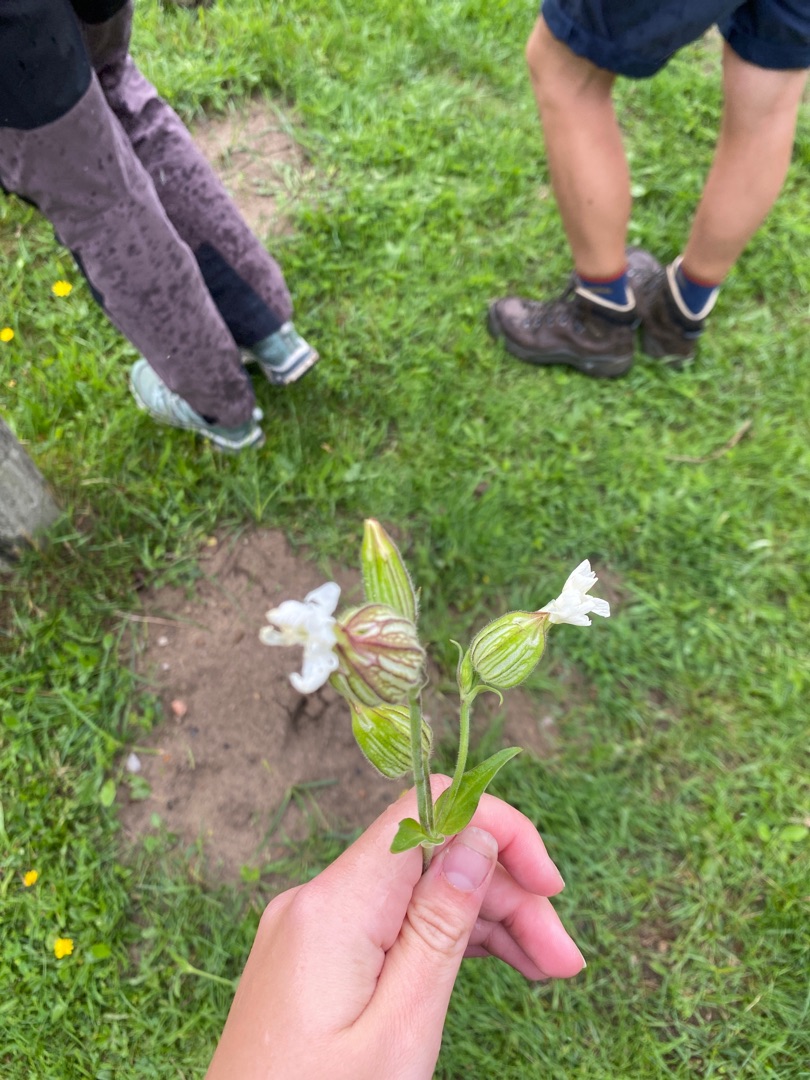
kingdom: Plantae
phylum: Tracheophyta
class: Magnoliopsida
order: Caryophyllales
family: Caryophyllaceae
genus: Silene
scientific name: Silene latifolia
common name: Aftenpragtstjerne
